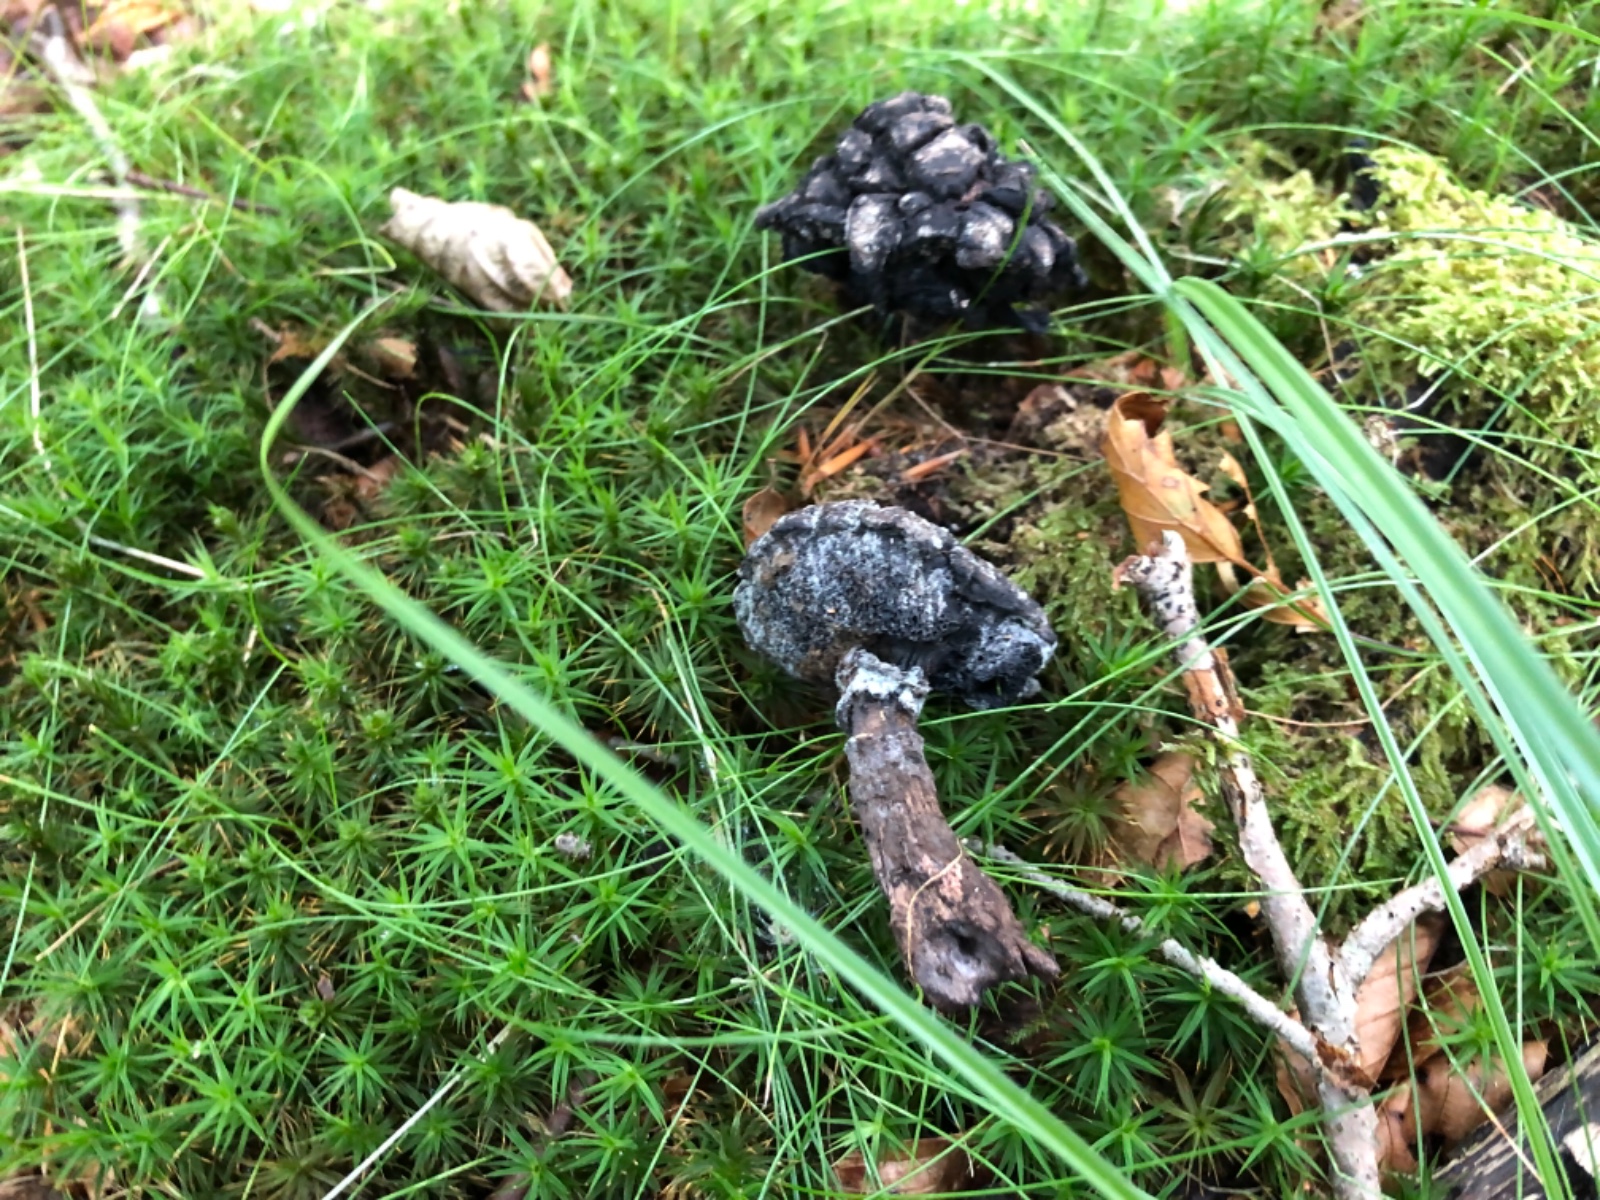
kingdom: Fungi
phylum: Basidiomycota
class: Agaricomycetes
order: Boletales
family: Boletaceae
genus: Strobilomyces
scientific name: Strobilomyces strobilaceus
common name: koglerørhat
